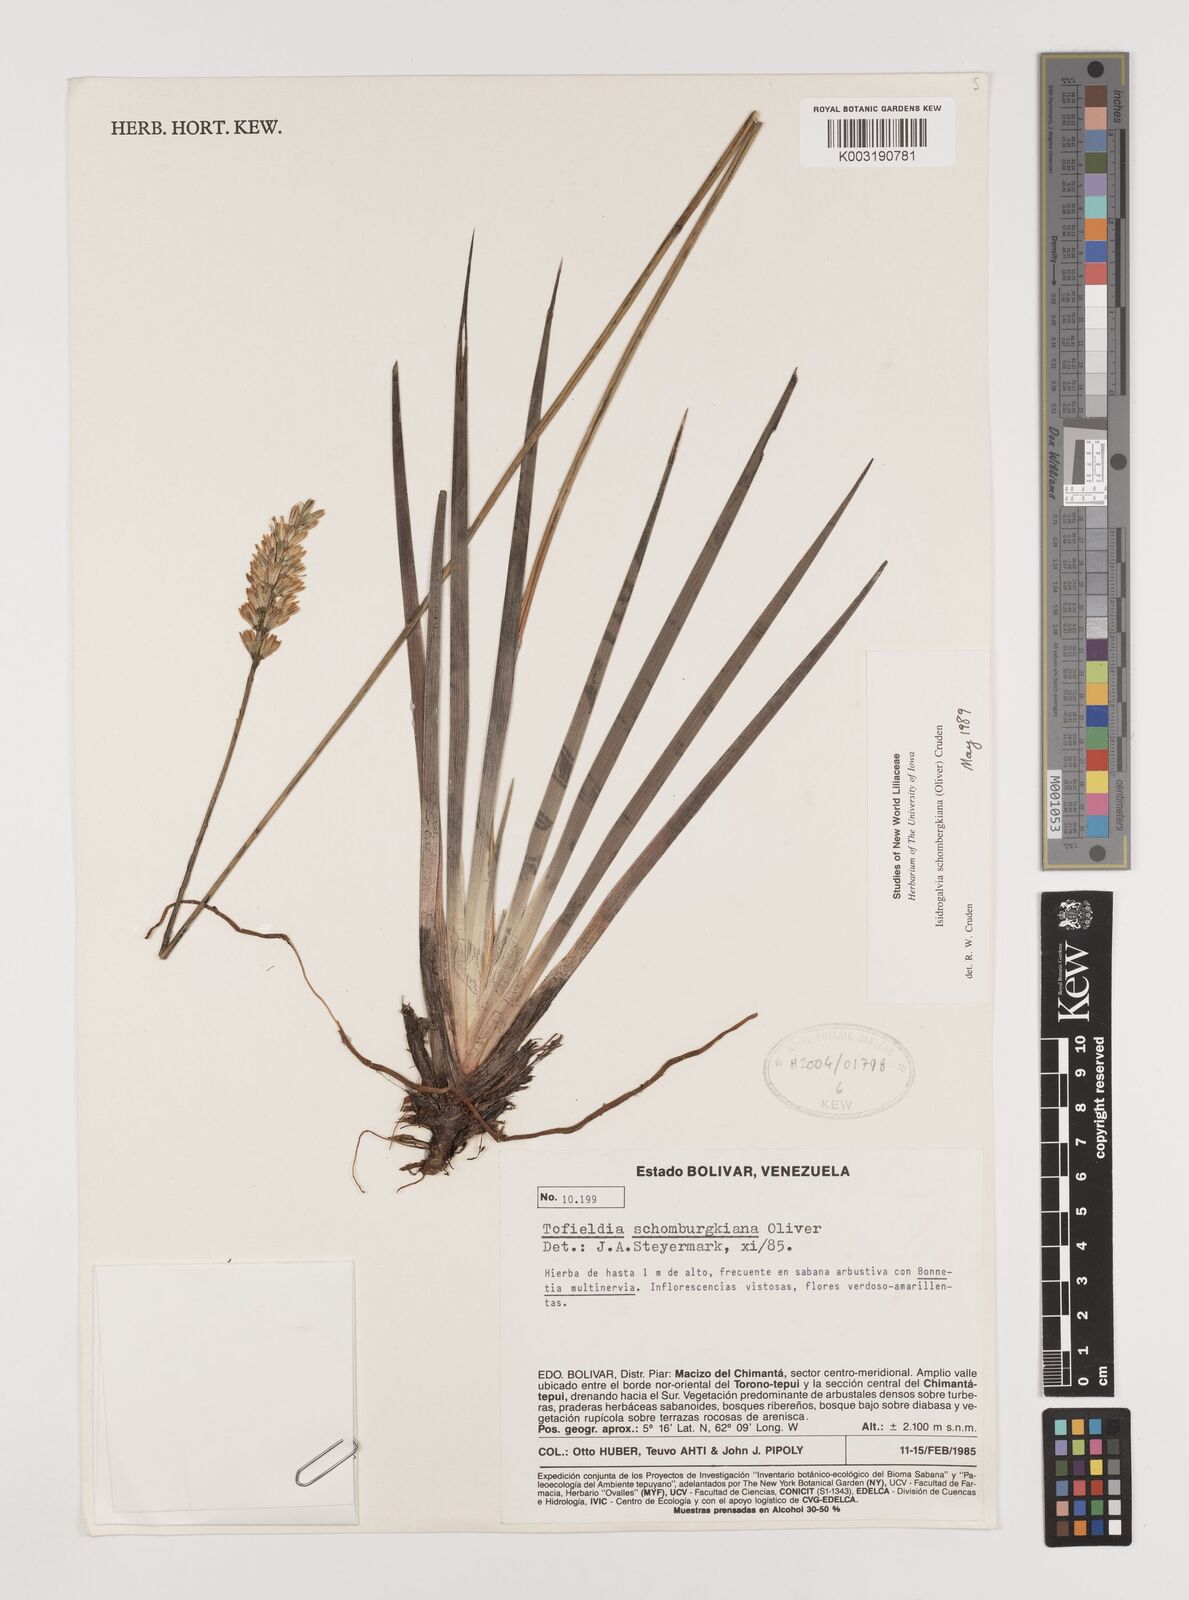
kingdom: Plantae
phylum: Tracheophyta
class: Liliopsida
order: Alismatales
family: Tofieldiaceae
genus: Harperocallis
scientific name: Harperocallis schomburgkiana
